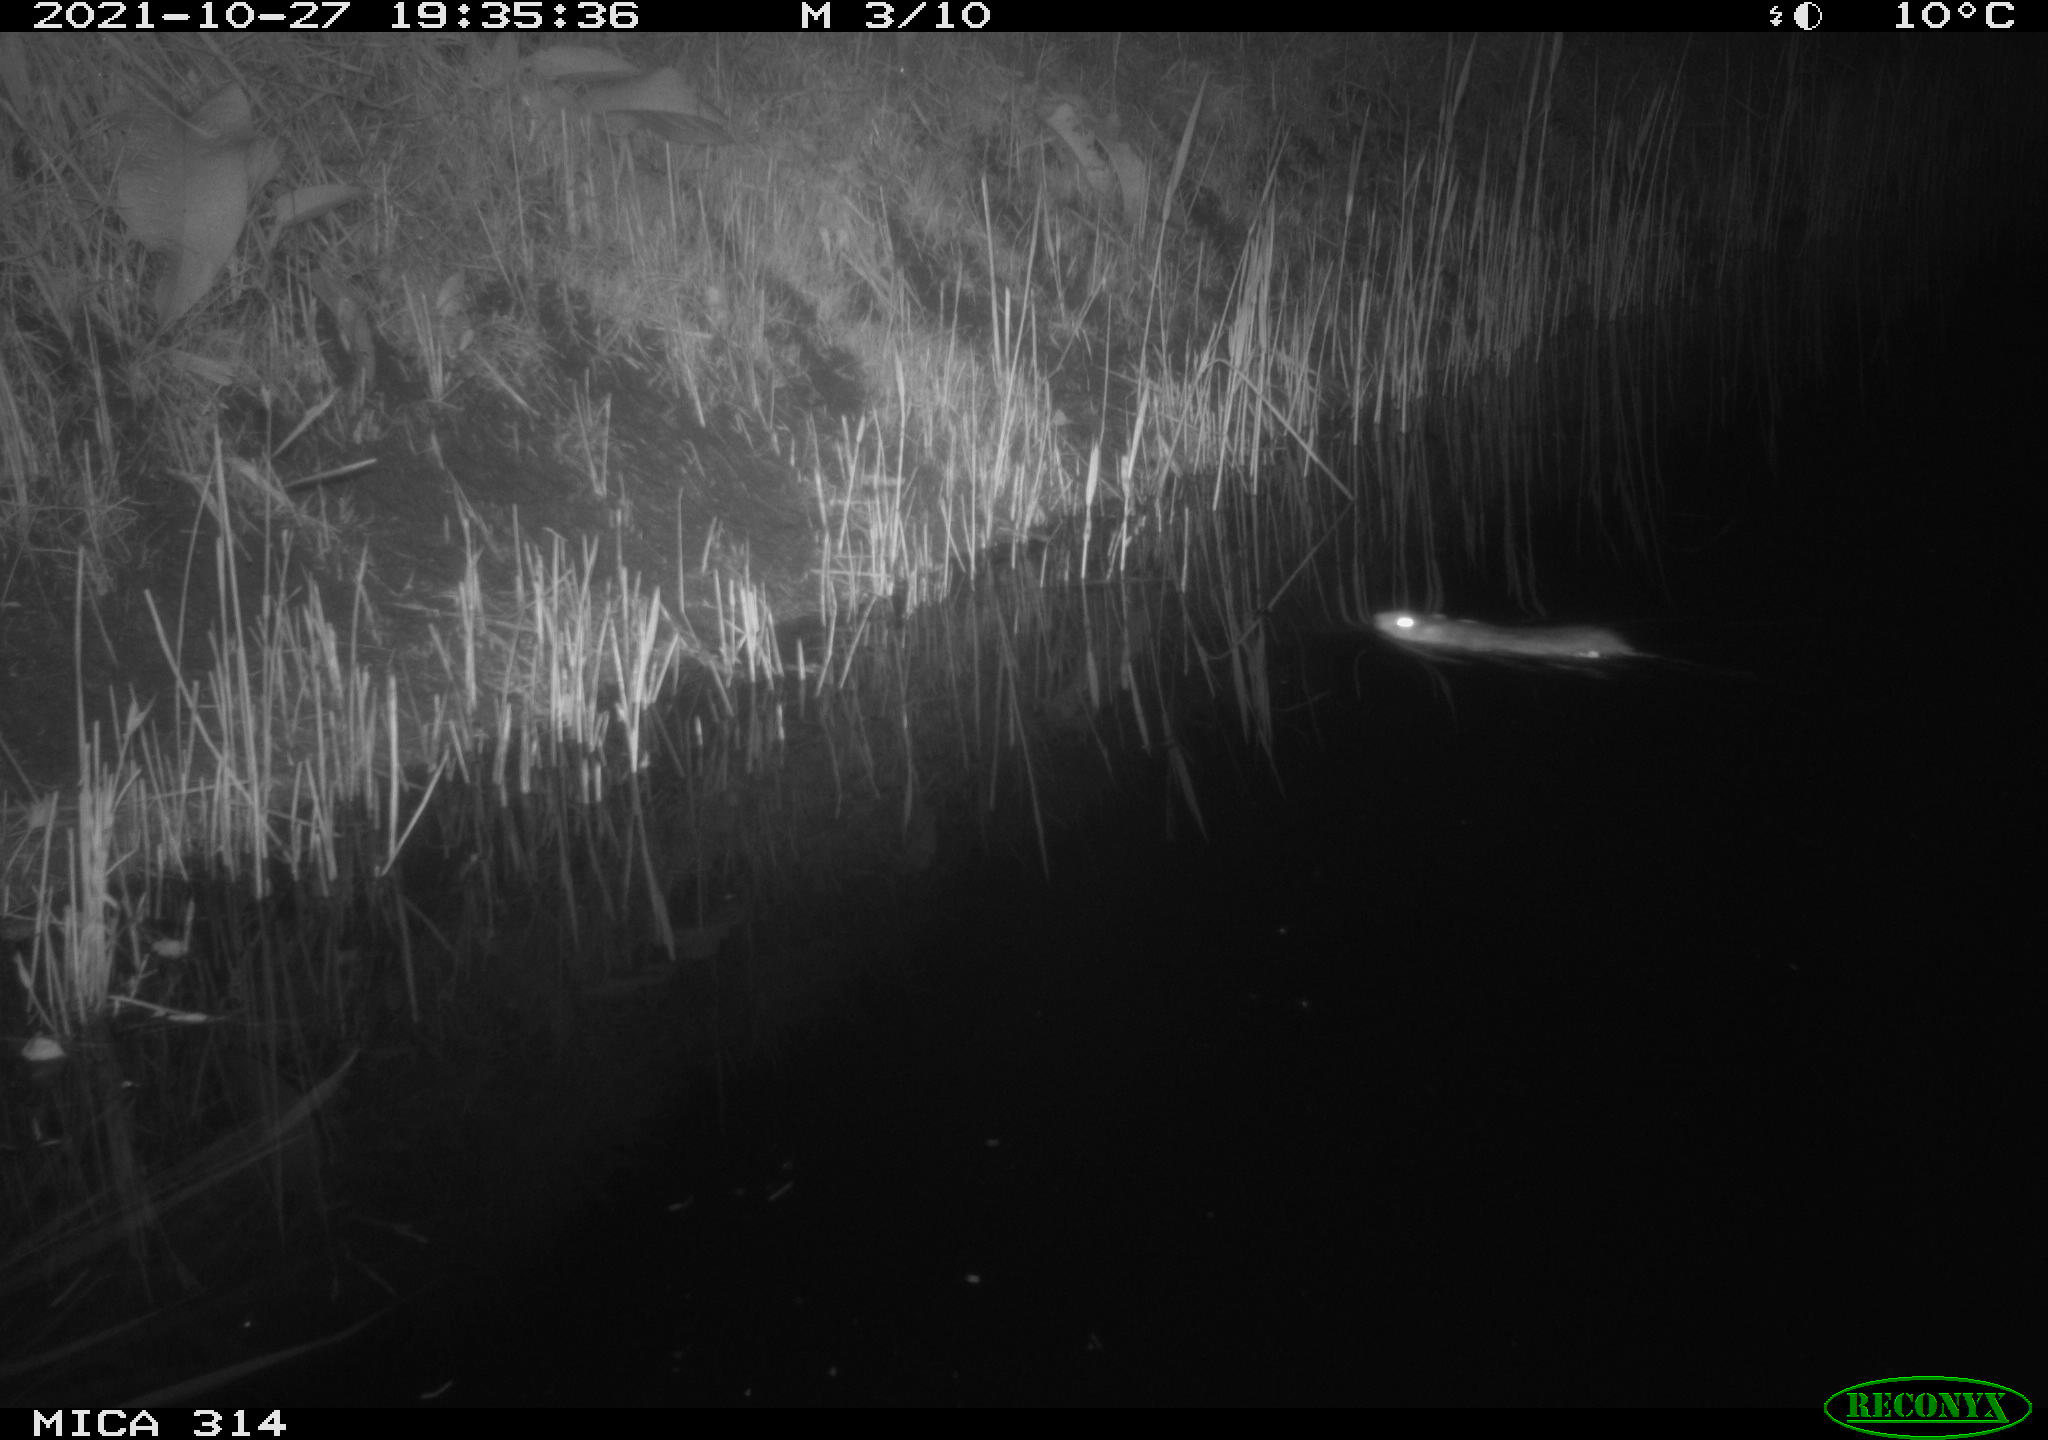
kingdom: Animalia
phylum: Chordata
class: Mammalia
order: Rodentia
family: Muridae
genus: Rattus
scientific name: Rattus norvegicus
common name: Brown rat
